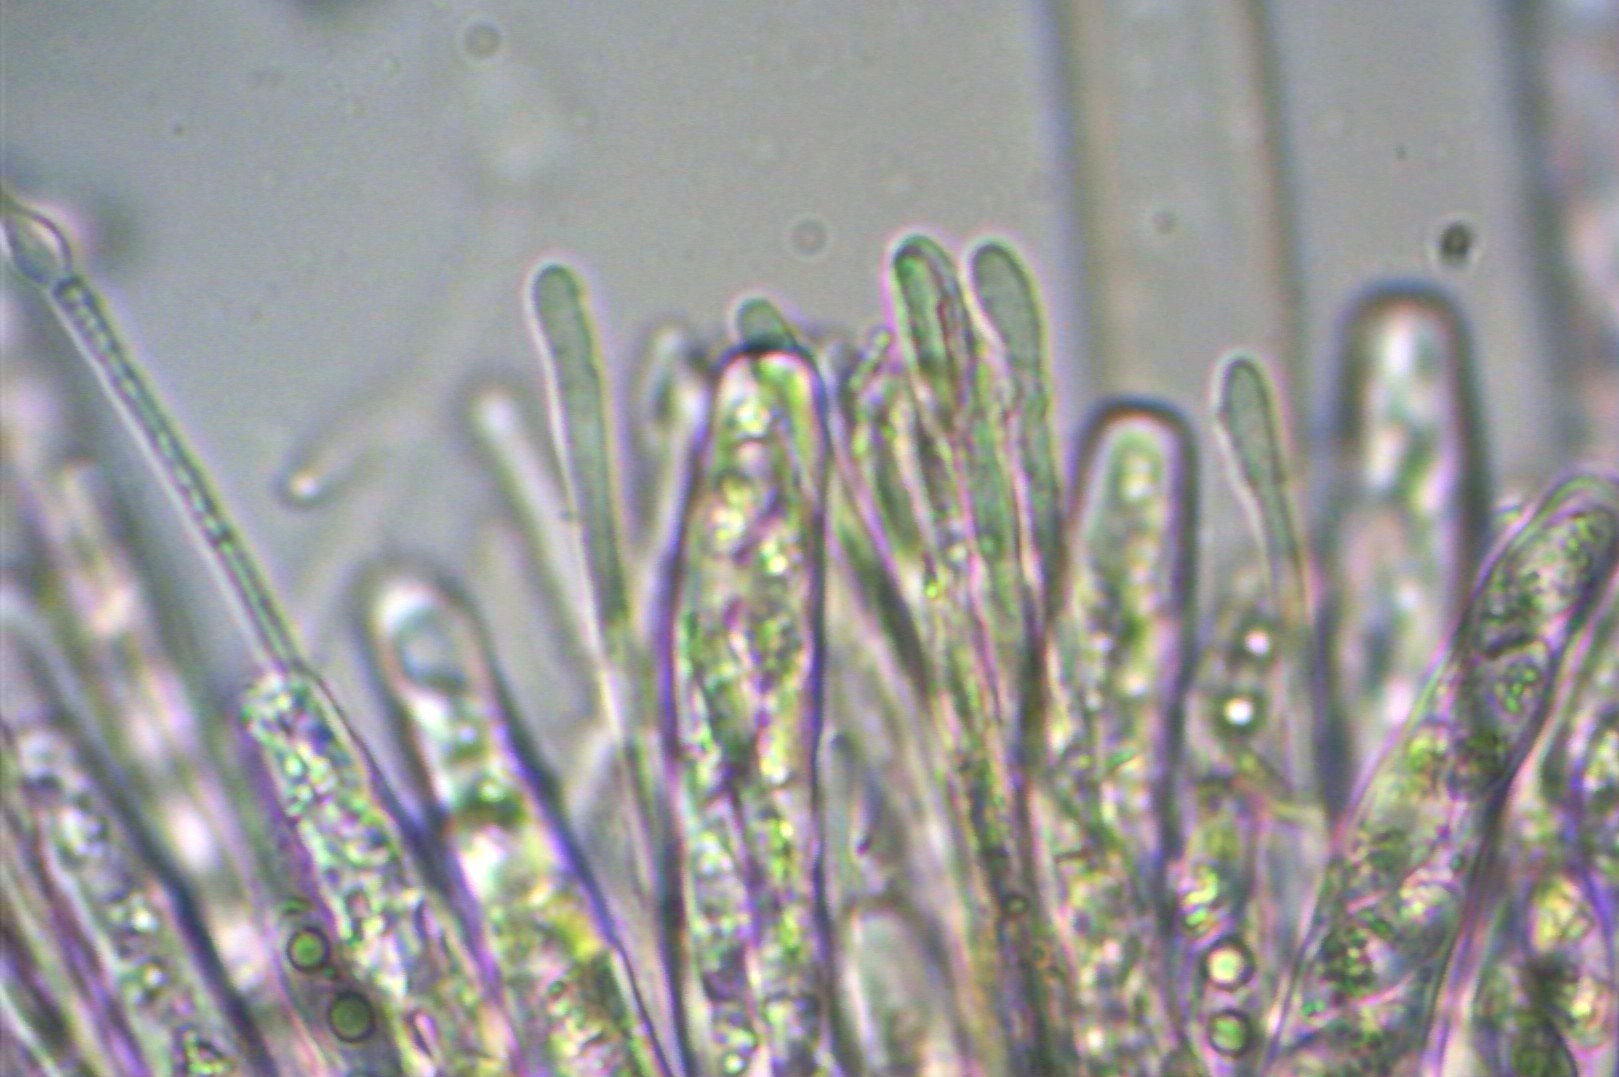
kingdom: Fungi
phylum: Ascomycota
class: Leotiomycetes
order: Helotiales
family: Sclerotiniaceae
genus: Clarireedia
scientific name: Clarireedia
